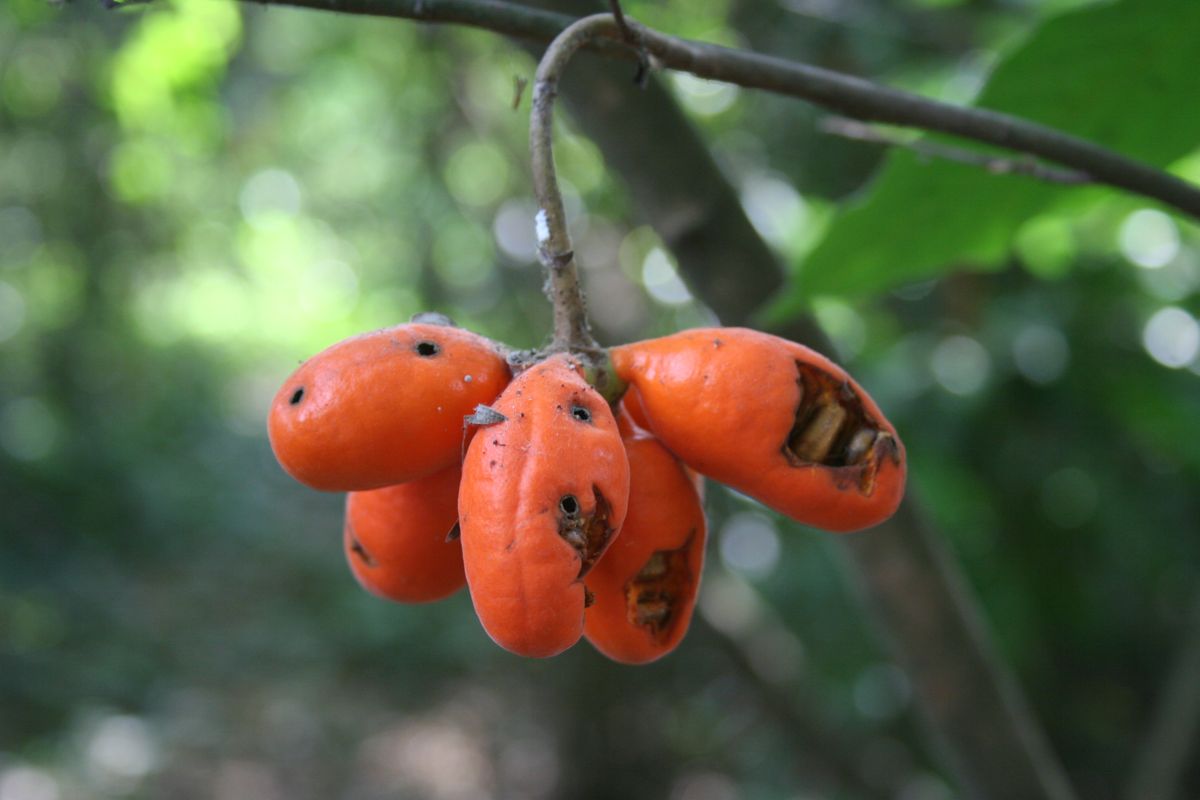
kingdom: Plantae
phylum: Tracheophyta
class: Magnoliopsida
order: Magnoliales
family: Annonaceae
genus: Desmopsis
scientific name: Desmopsis microcarpa
